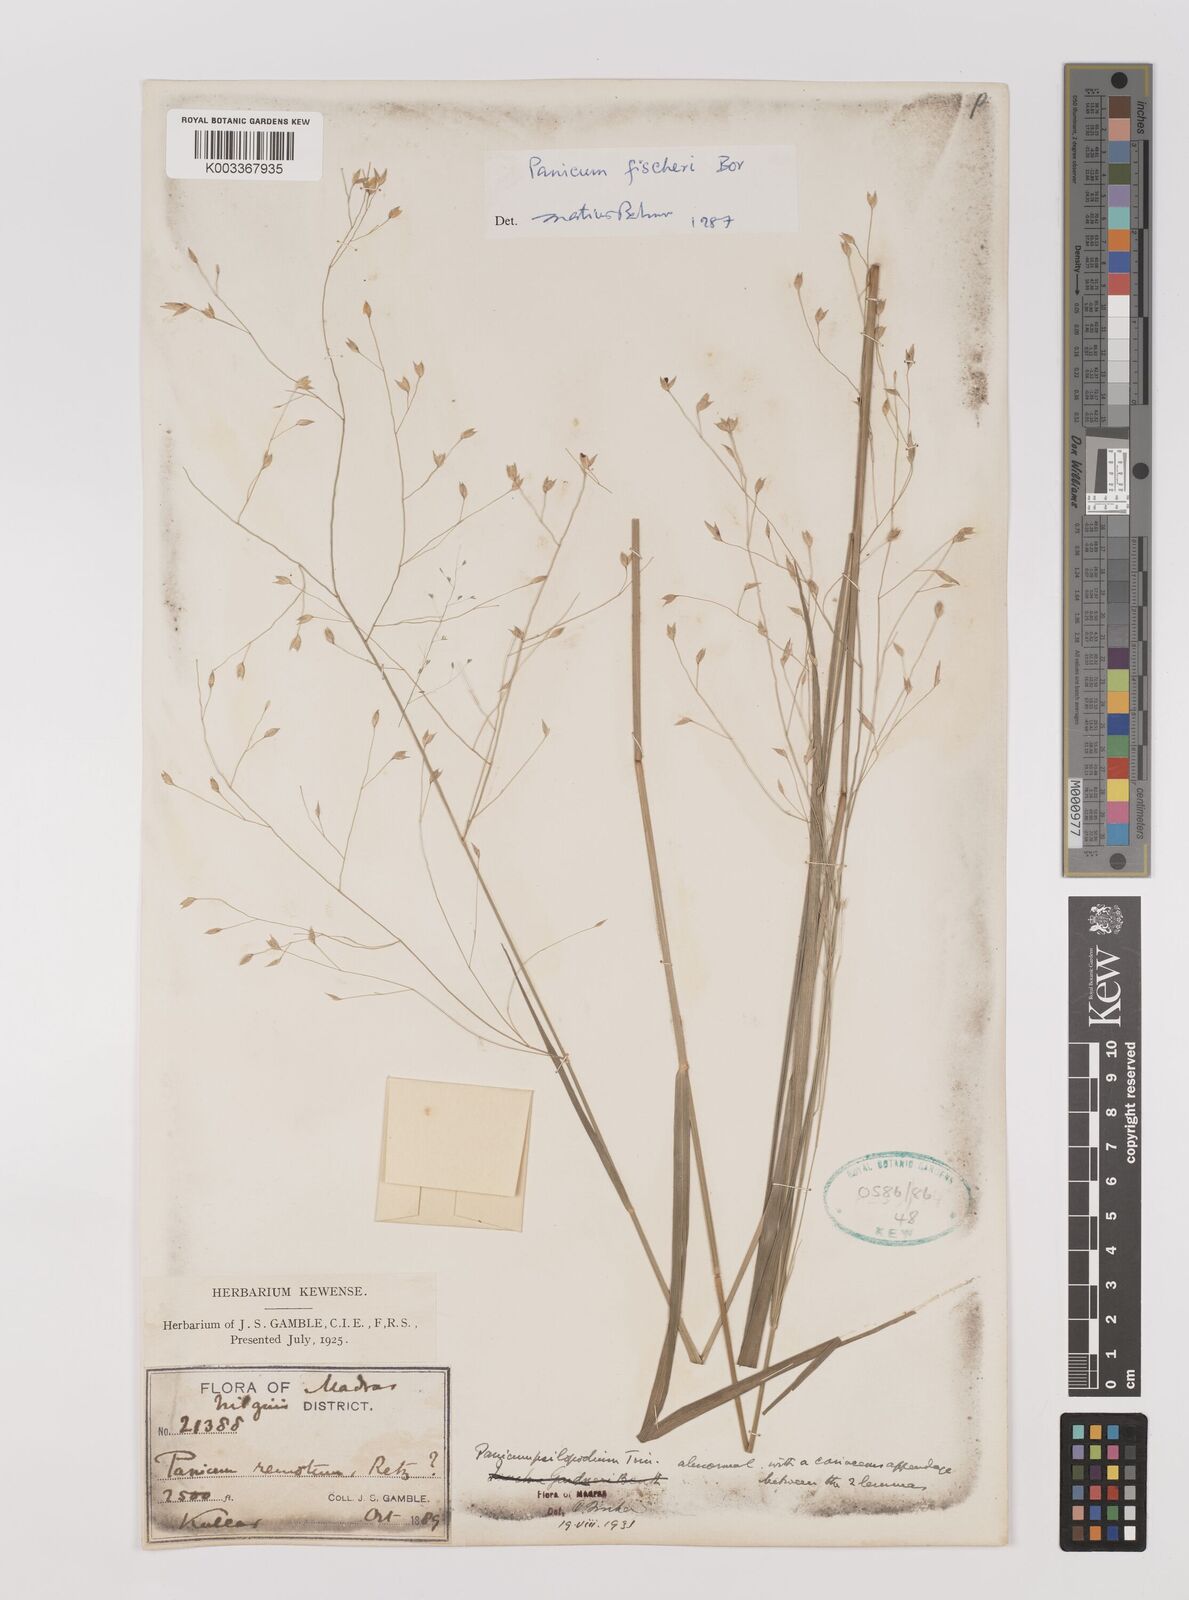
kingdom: Plantae
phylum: Tracheophyta
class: Liliopsida
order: Poales
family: Poaceae
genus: Panicum
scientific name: Panicum fischeri
